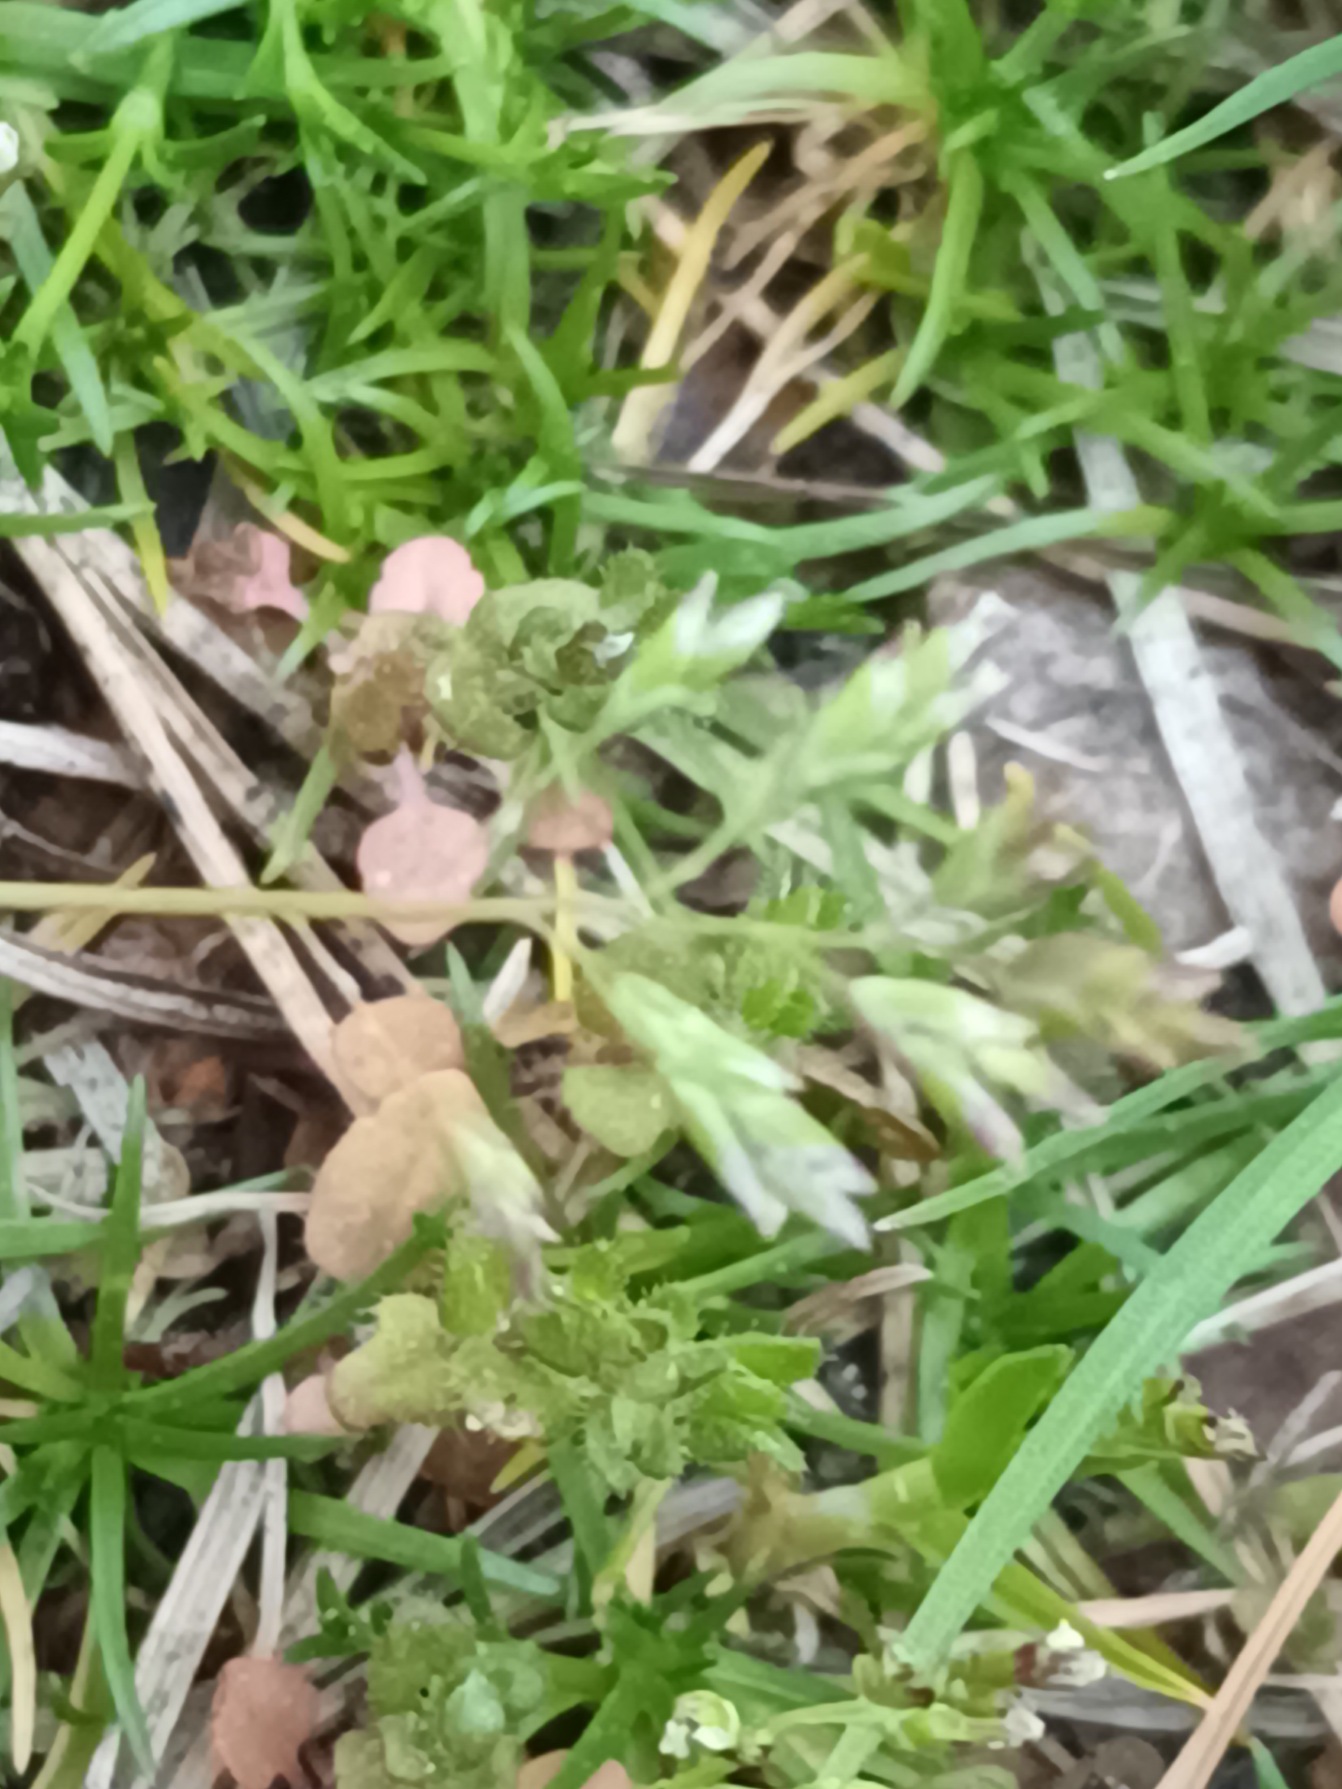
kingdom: Plantae
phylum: Tracheophyta
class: Liliopsida
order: Poales
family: Poaceae
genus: Poa
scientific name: Poa annua
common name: Enårig rapgræs
